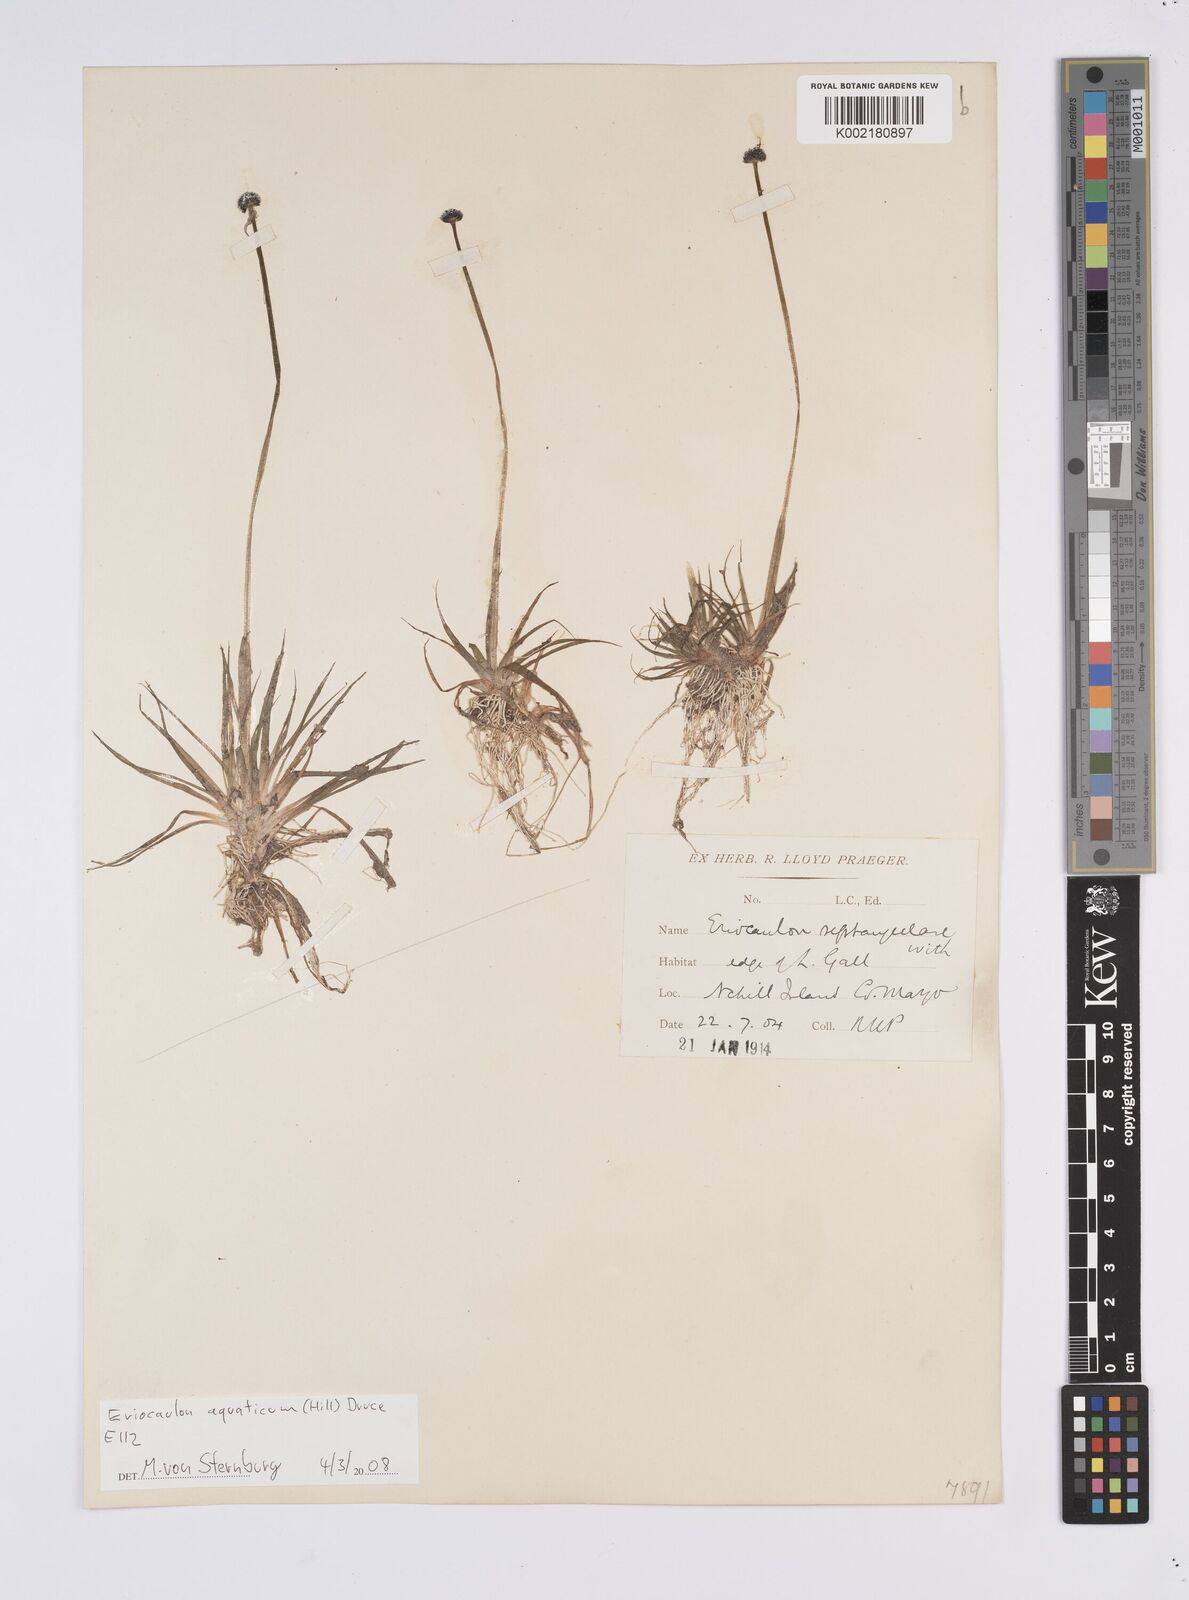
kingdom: Plantae
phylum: Tracheophyta
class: Liliopsida
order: Poales
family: Eriocaulaceae
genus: Eriocaulon
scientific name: Eriocaulon aquaticum
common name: Pipewort
